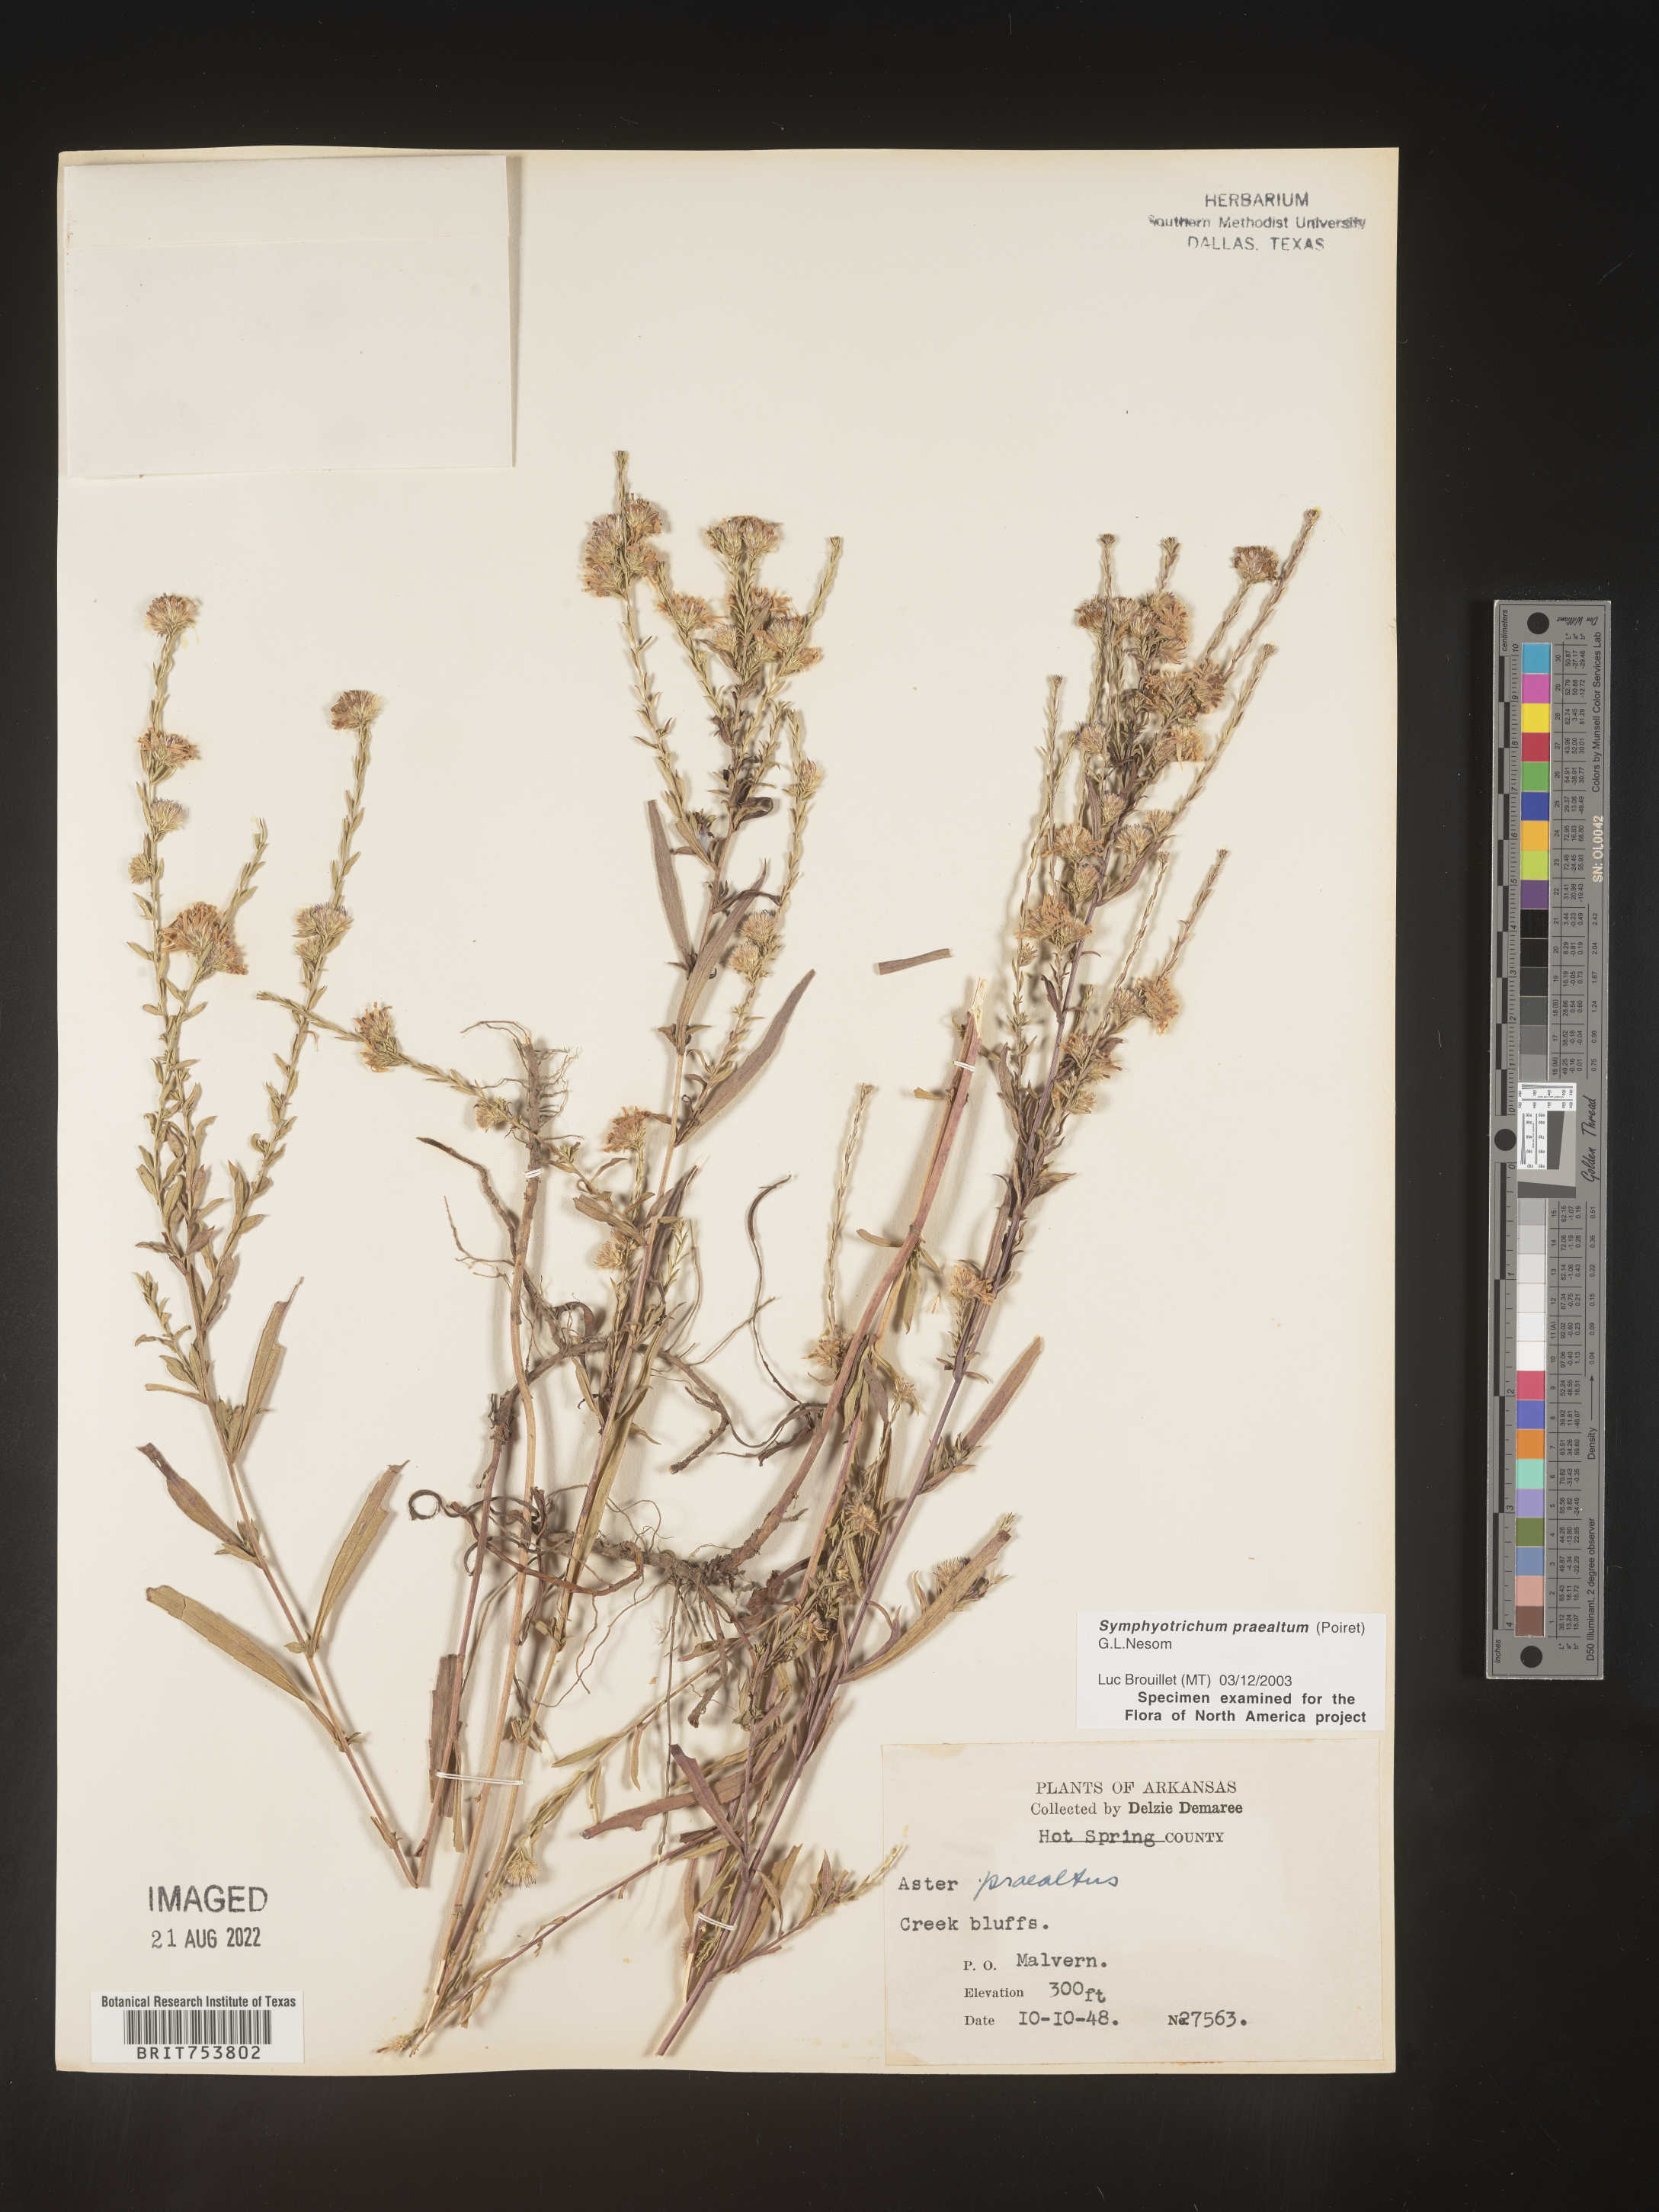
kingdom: Plantae
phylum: Tracheophyta
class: Magnoliopsida
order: Asterales
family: Asteraceae
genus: Symphyotrichum
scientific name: Symphyotrichum praealtum
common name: Willow aster
